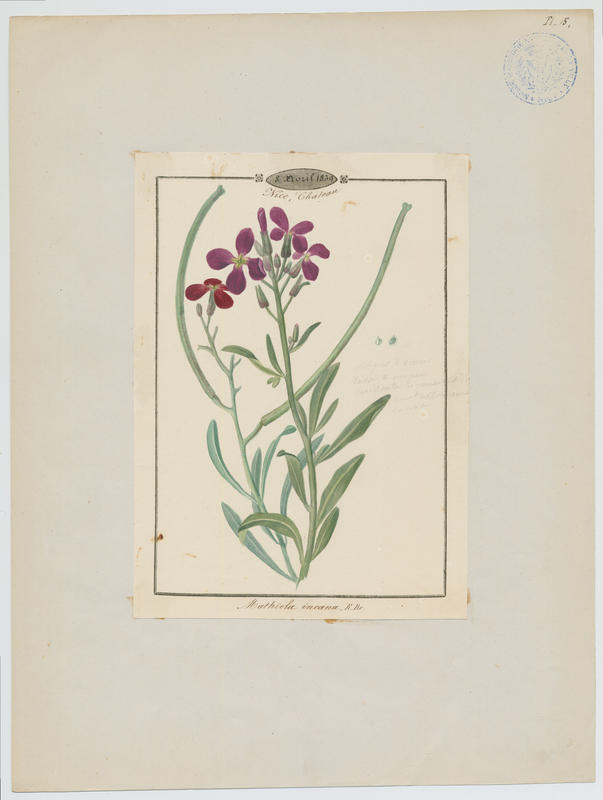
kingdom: Plantae
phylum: Tracheophyta
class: Magnoliopsida
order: Brassicales
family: Brassicaceae
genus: Matthiola
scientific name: Matthiola incana
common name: Hoary stock
